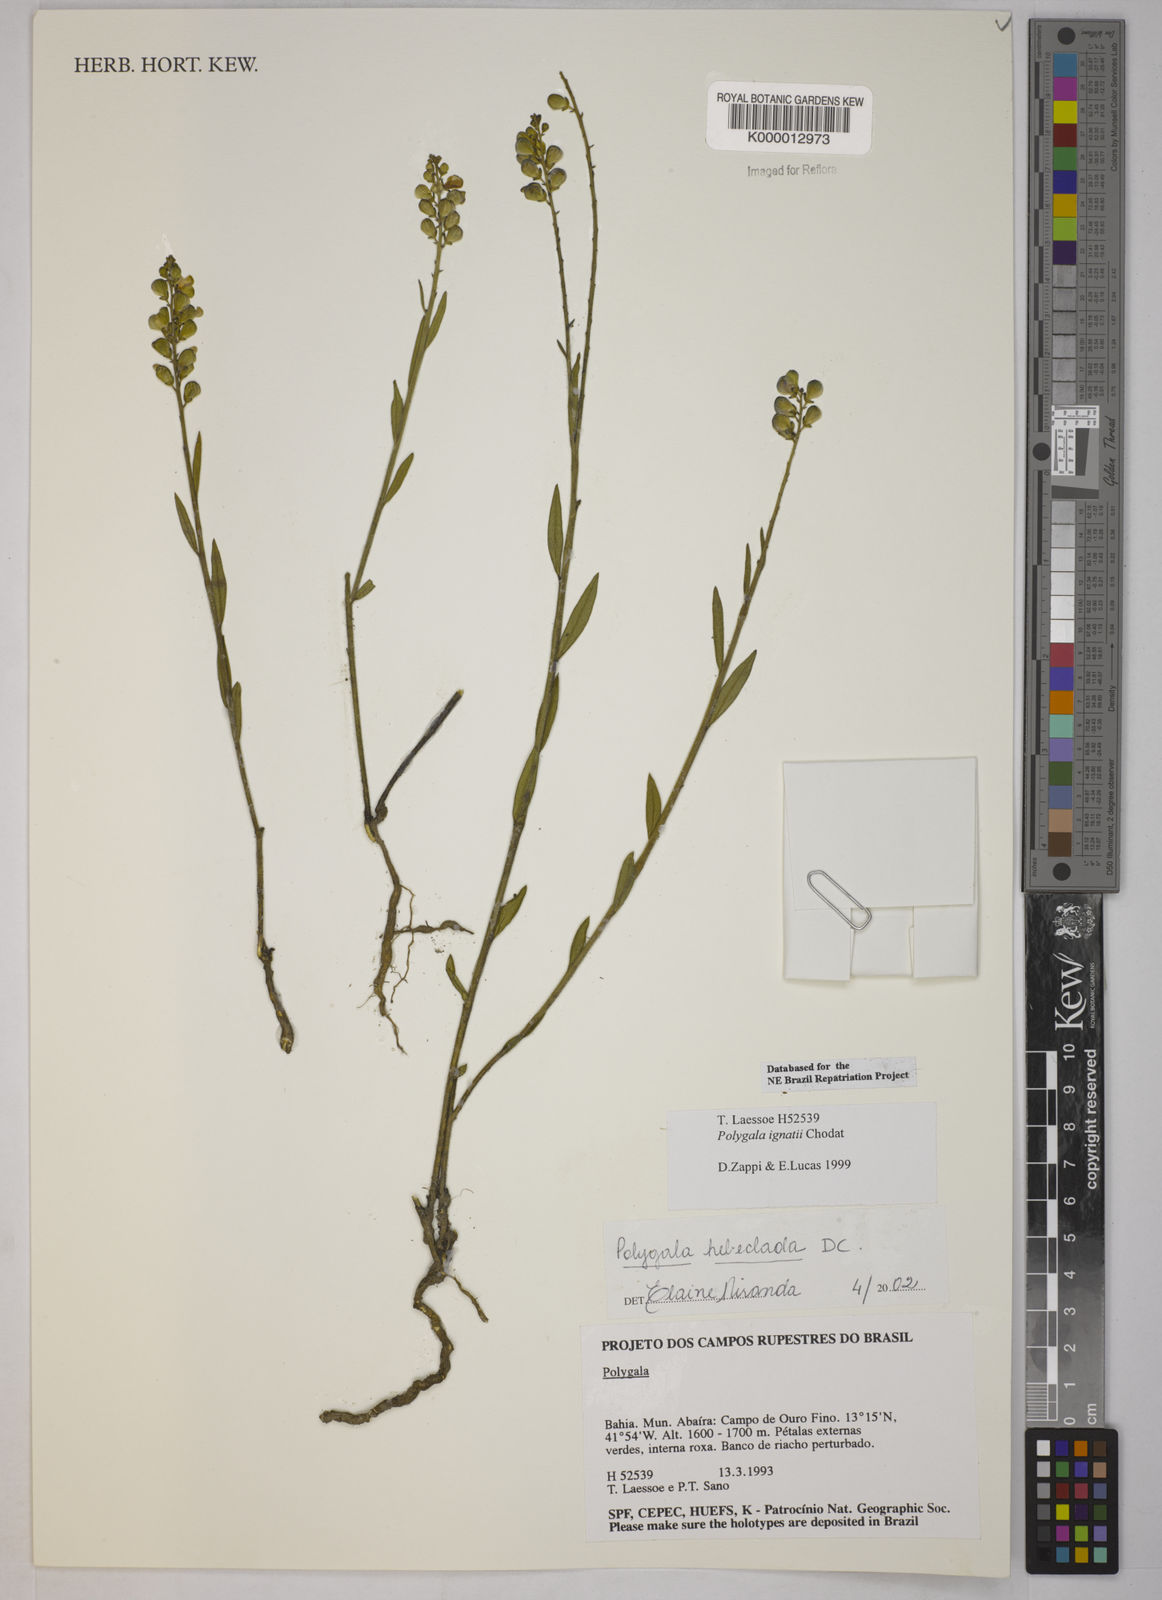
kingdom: Plantae
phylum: Tracheophyta
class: Magnoliopsida
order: Fabales
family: Polygalaceae
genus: Asemeia
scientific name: Asemeia hebeclada
